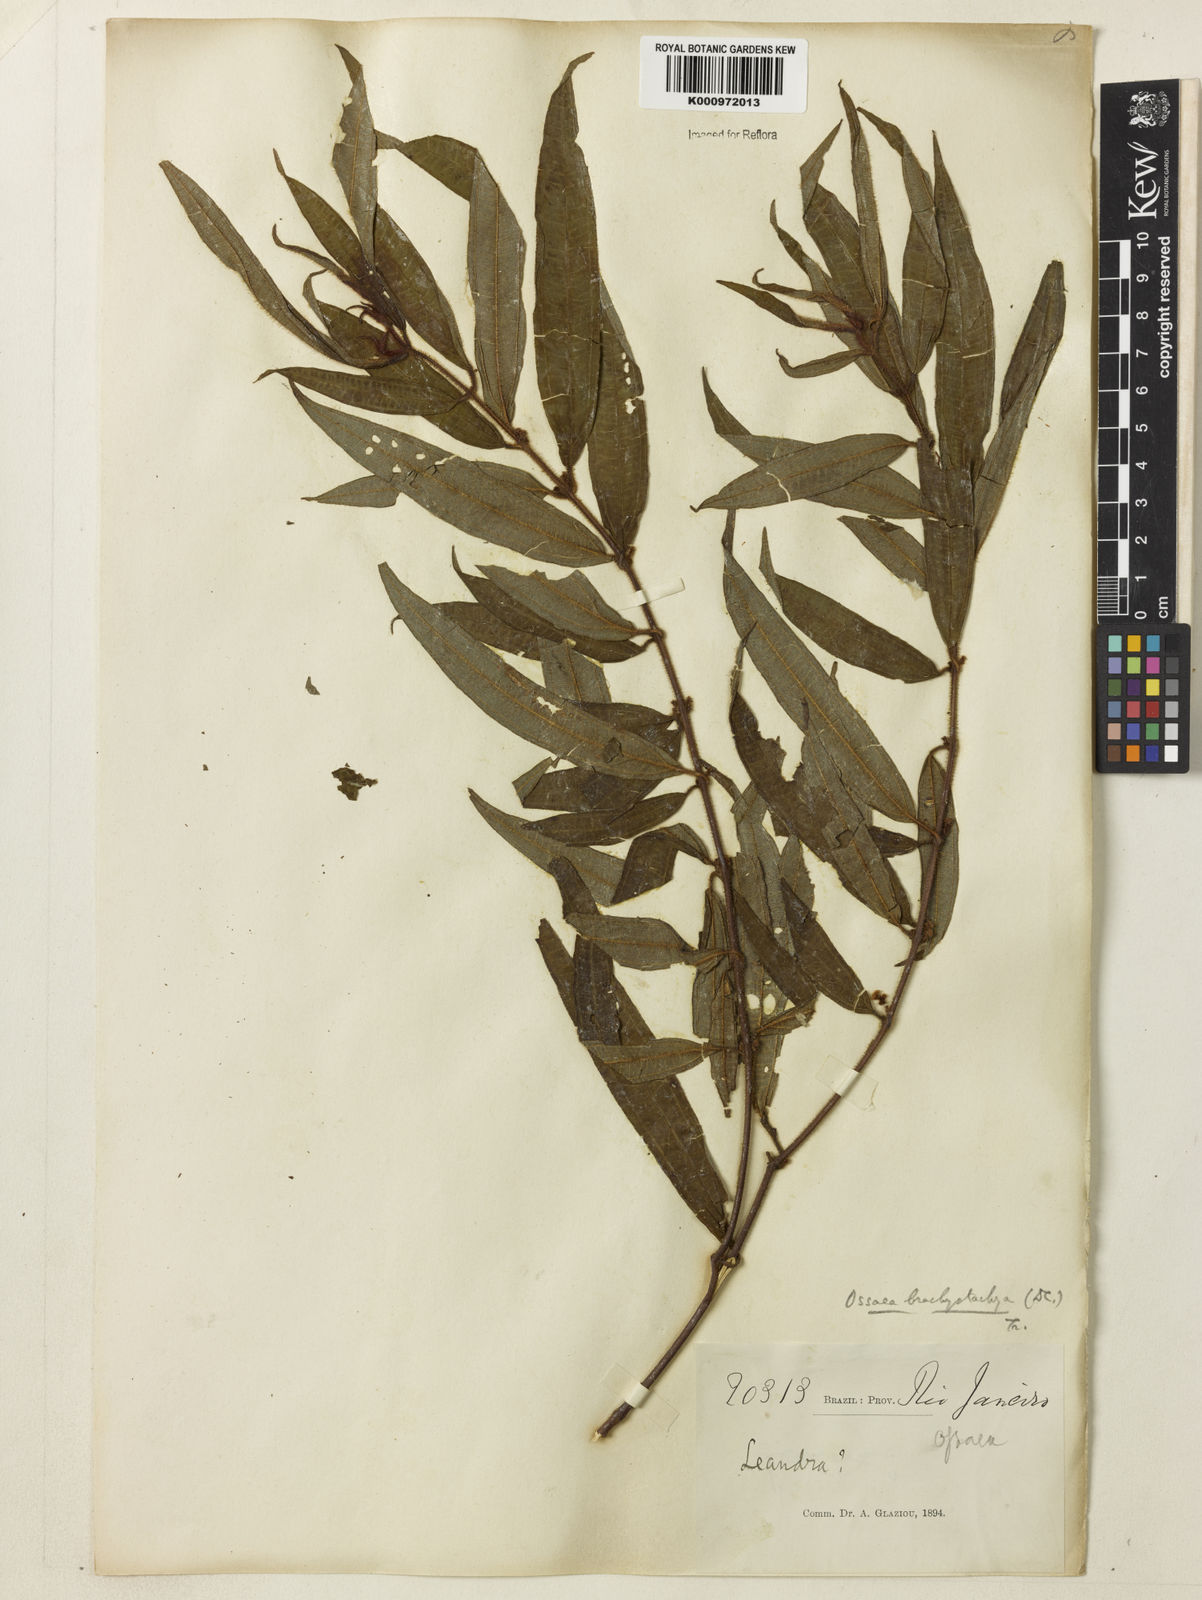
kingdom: Plantae
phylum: Tracheophyta
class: Magnoliopsida
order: Myrtales
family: Melastomataceae
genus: Miconia
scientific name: Miconia amygdaloides
